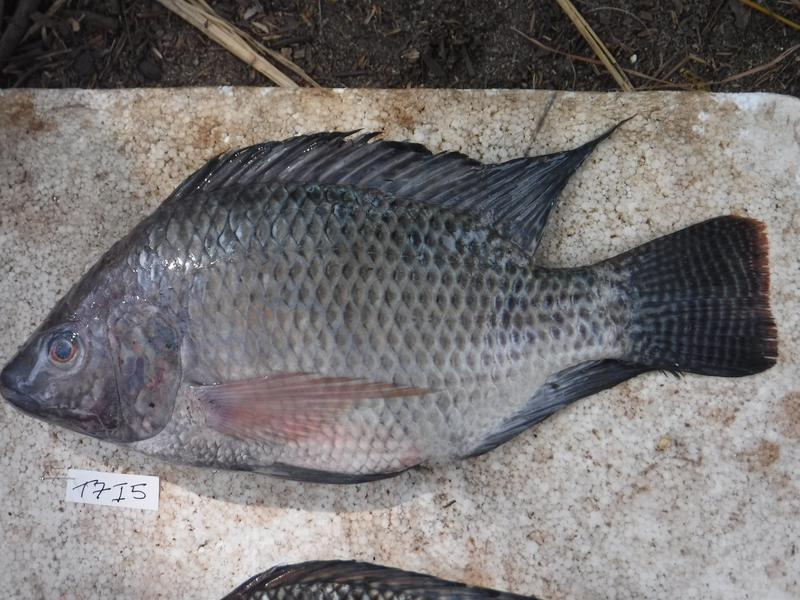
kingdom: Animalia
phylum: Chordata
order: Perciformes
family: Cichlidae
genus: Oreochromis
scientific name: Oreochromis niloticus
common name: Nile tilapia
